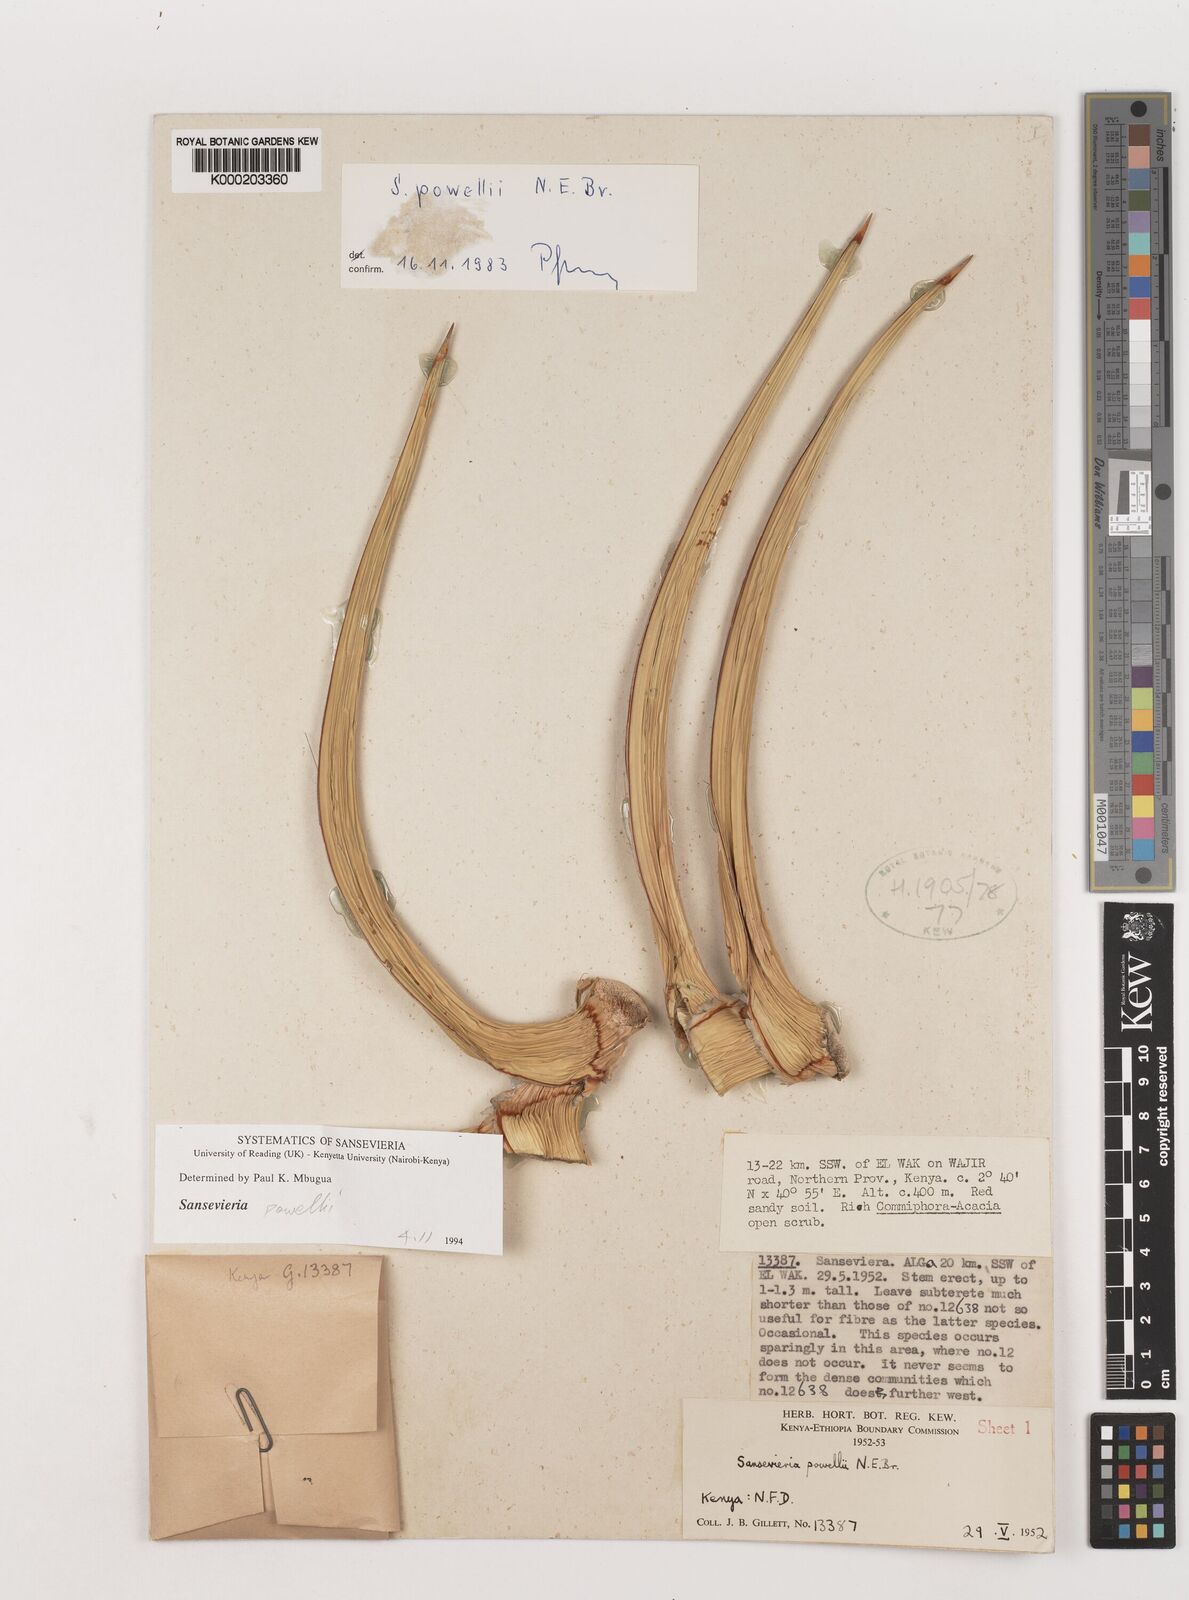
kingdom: Plantae
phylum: Tracheophyta
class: Liliopsida
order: Asparagales
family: Asparagaceae
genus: Dracaena
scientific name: Dracaena powellii
